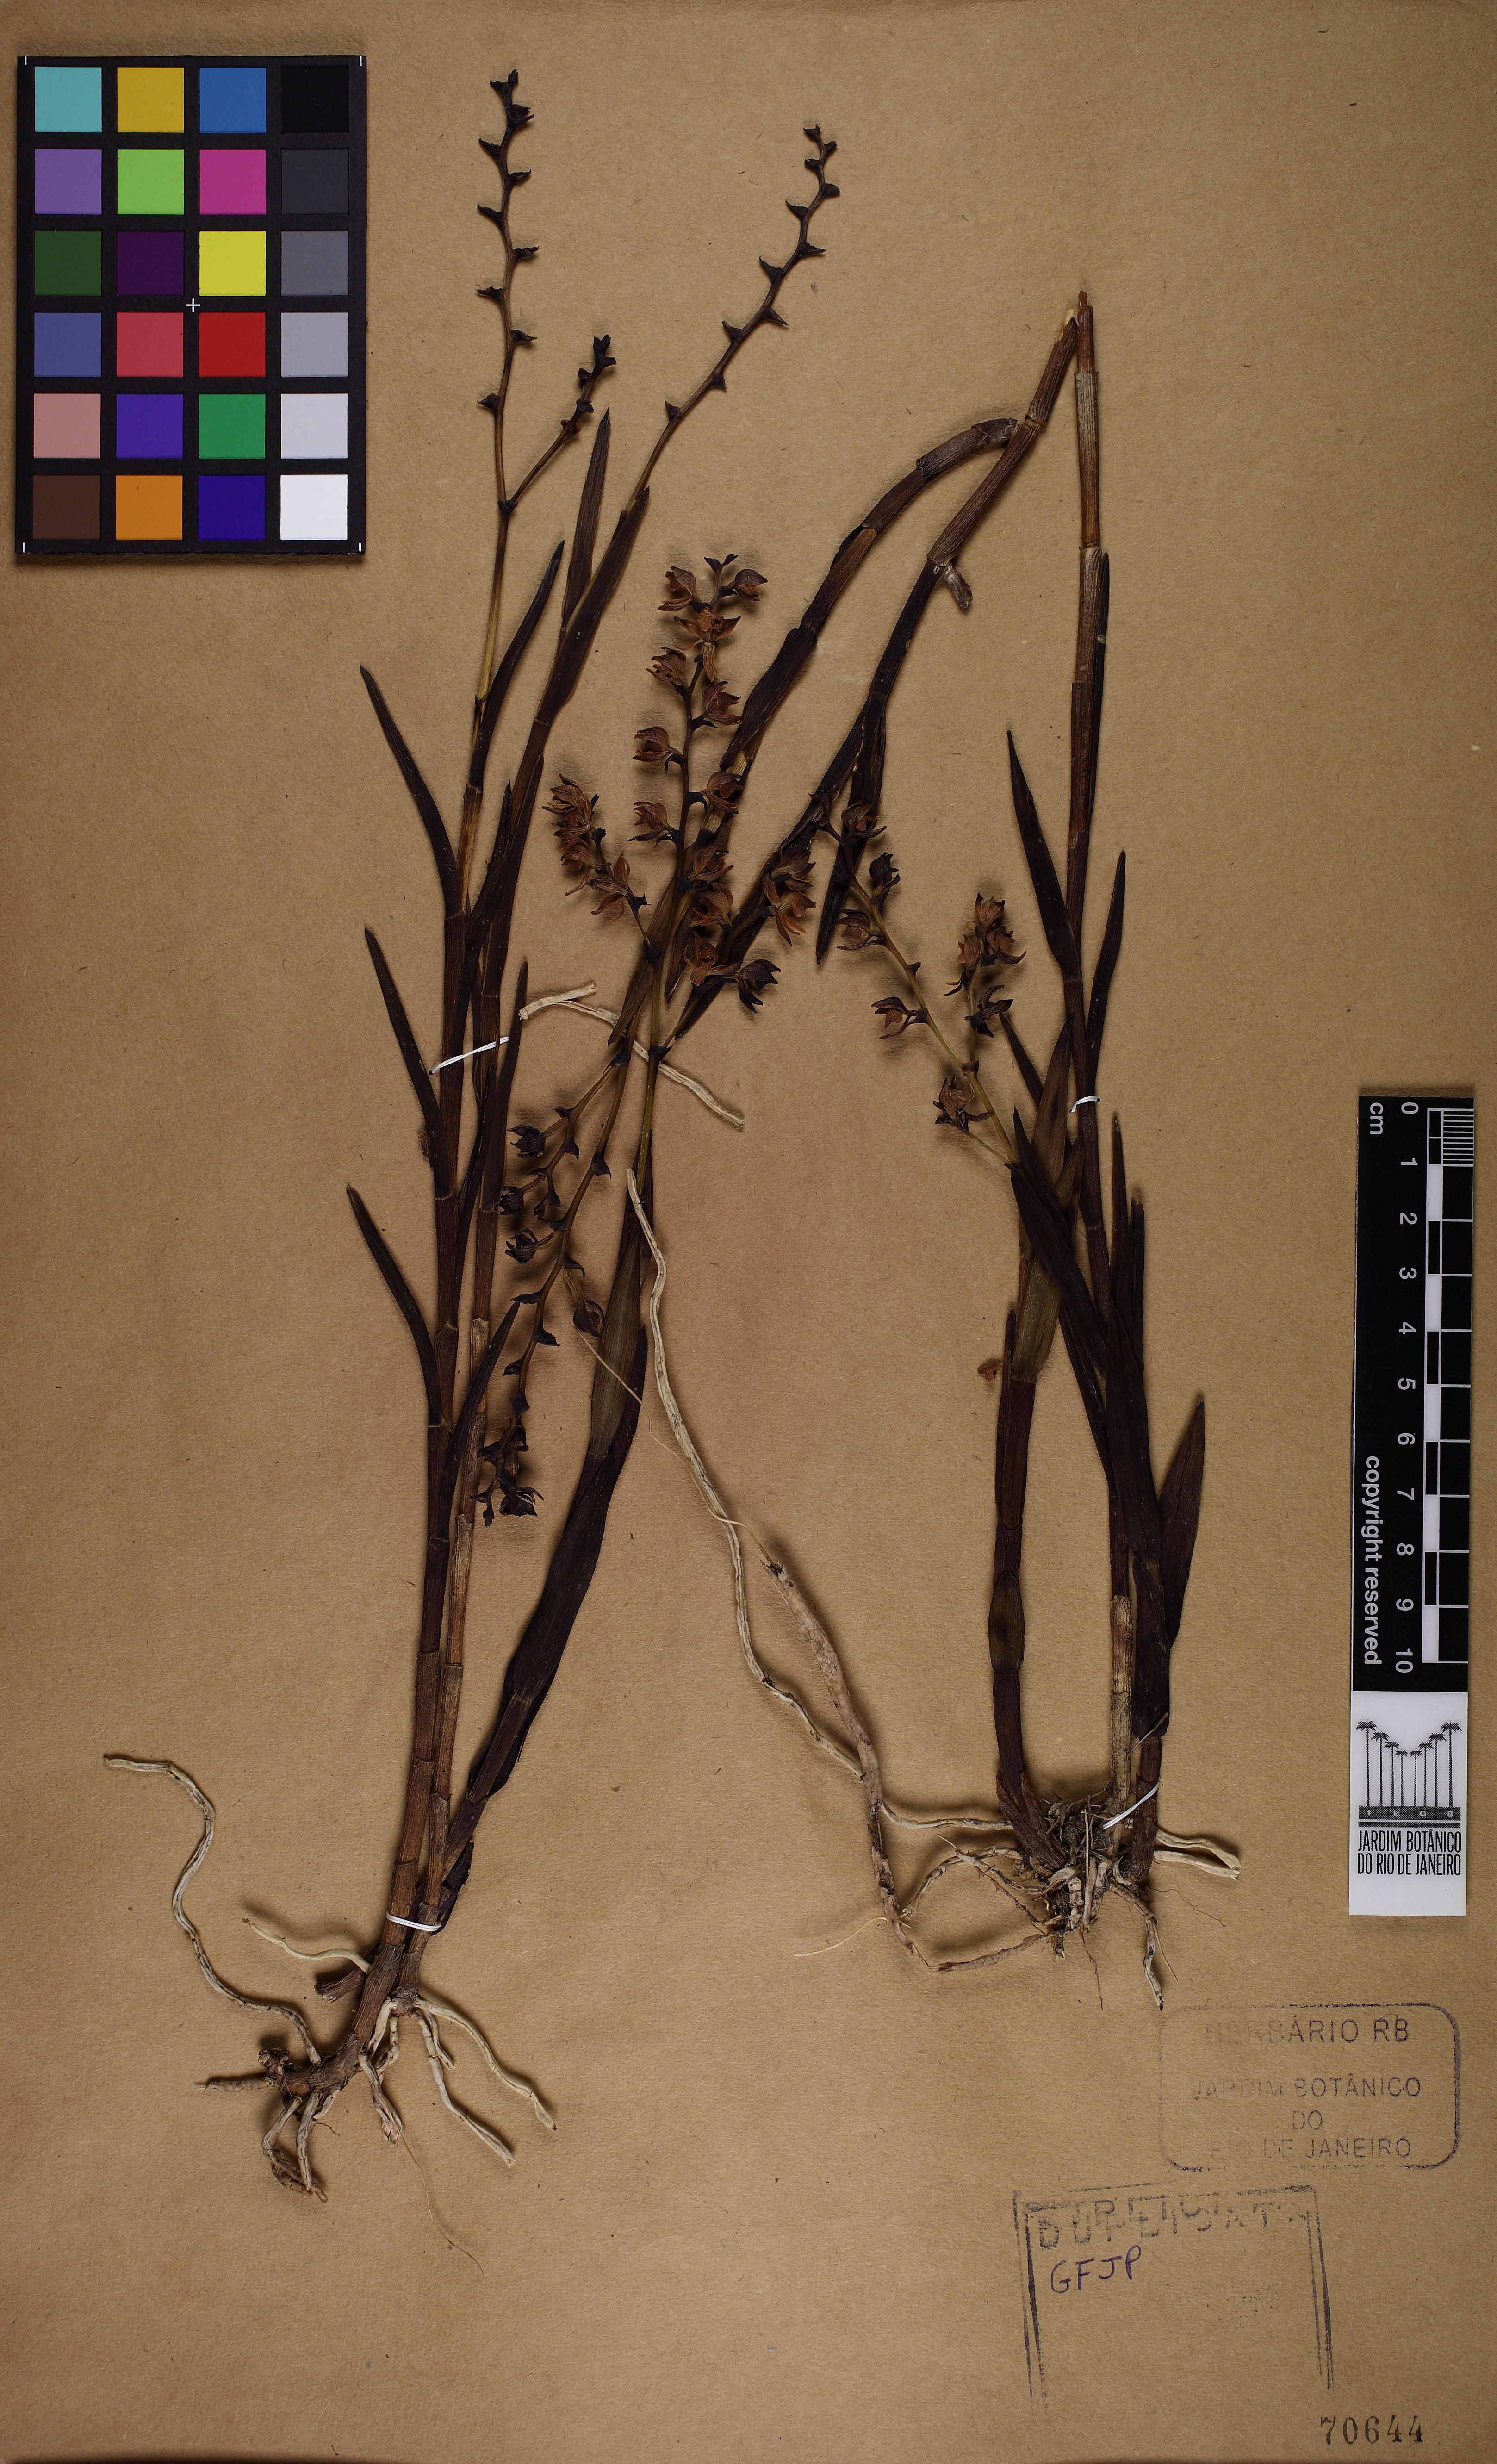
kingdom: Plantae
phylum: Tracheophyta
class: Liliopsida
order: Asparagales
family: Orchidaceae
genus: Epidendrum
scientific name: Epidendrum dendrobioides
